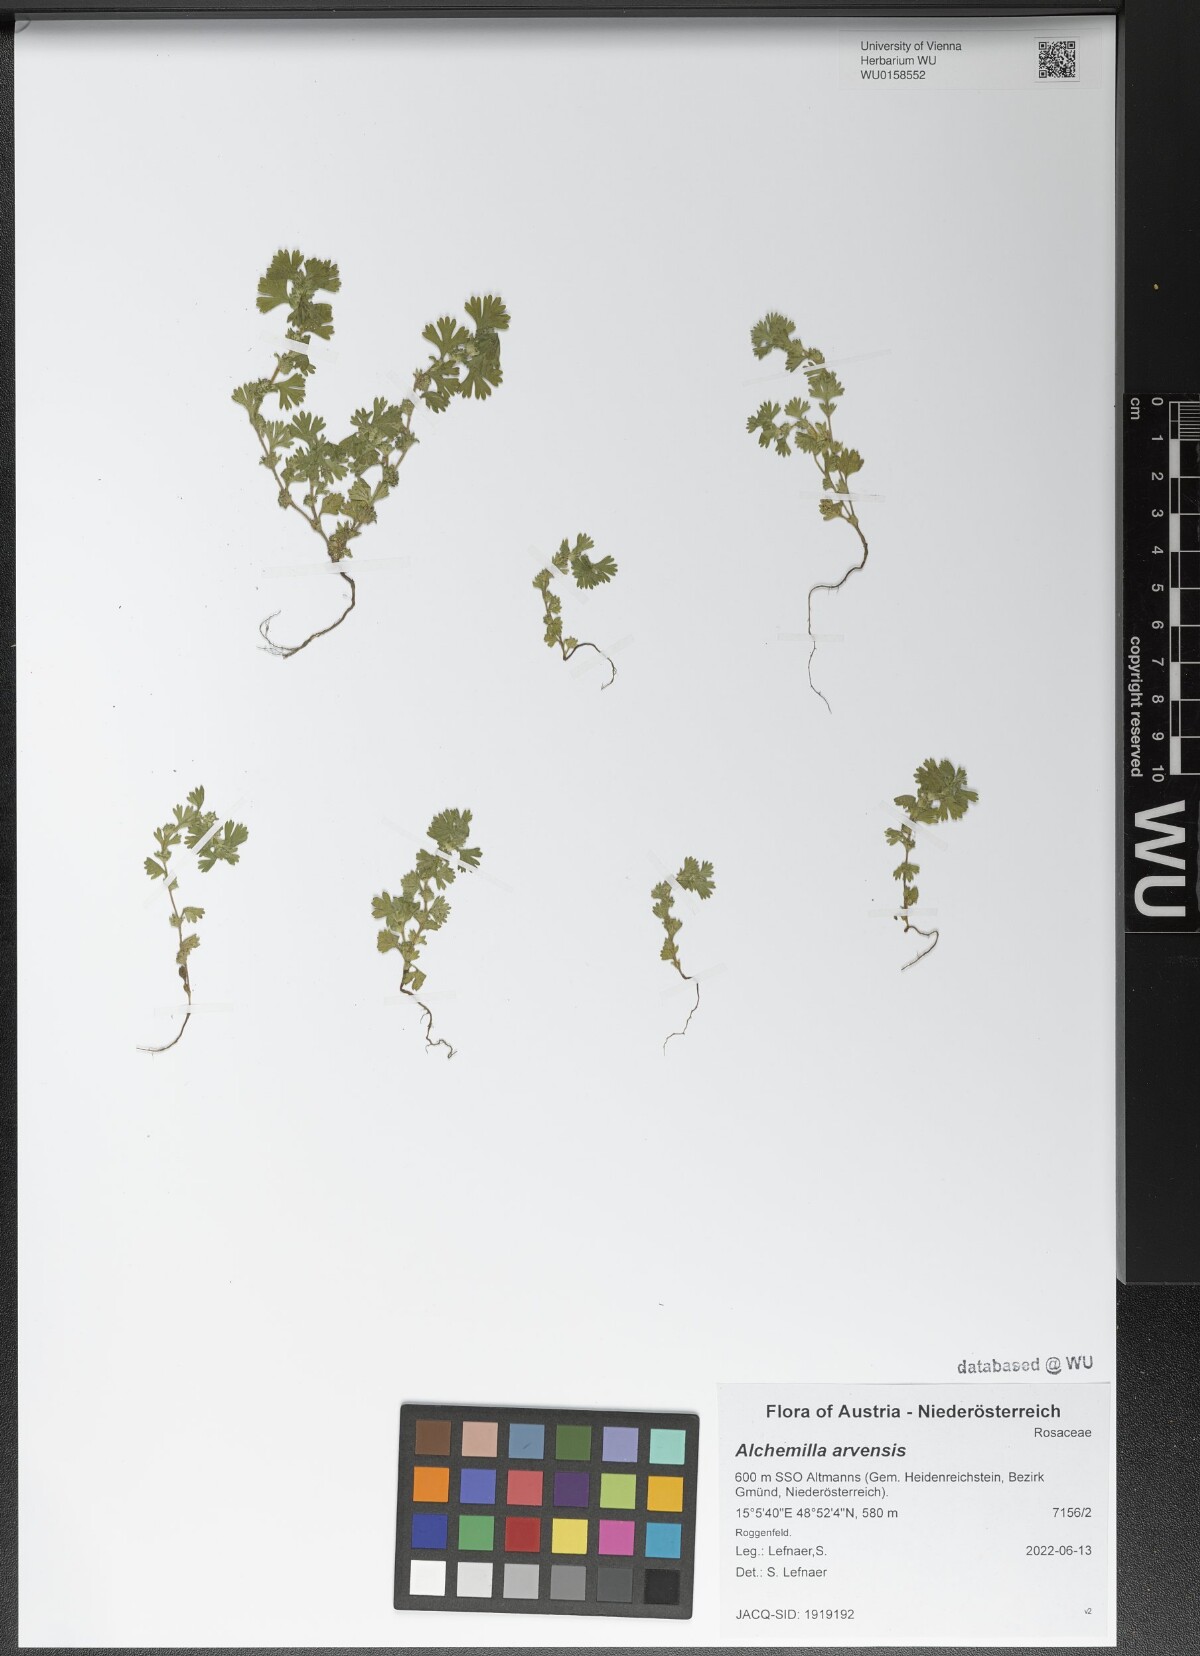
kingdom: Plantae
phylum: Tracheophyta
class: Magnoliopsida
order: Rosales
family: Rosaceae
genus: Aphanes
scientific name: Aphanes arvensis
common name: Parsley-piert
